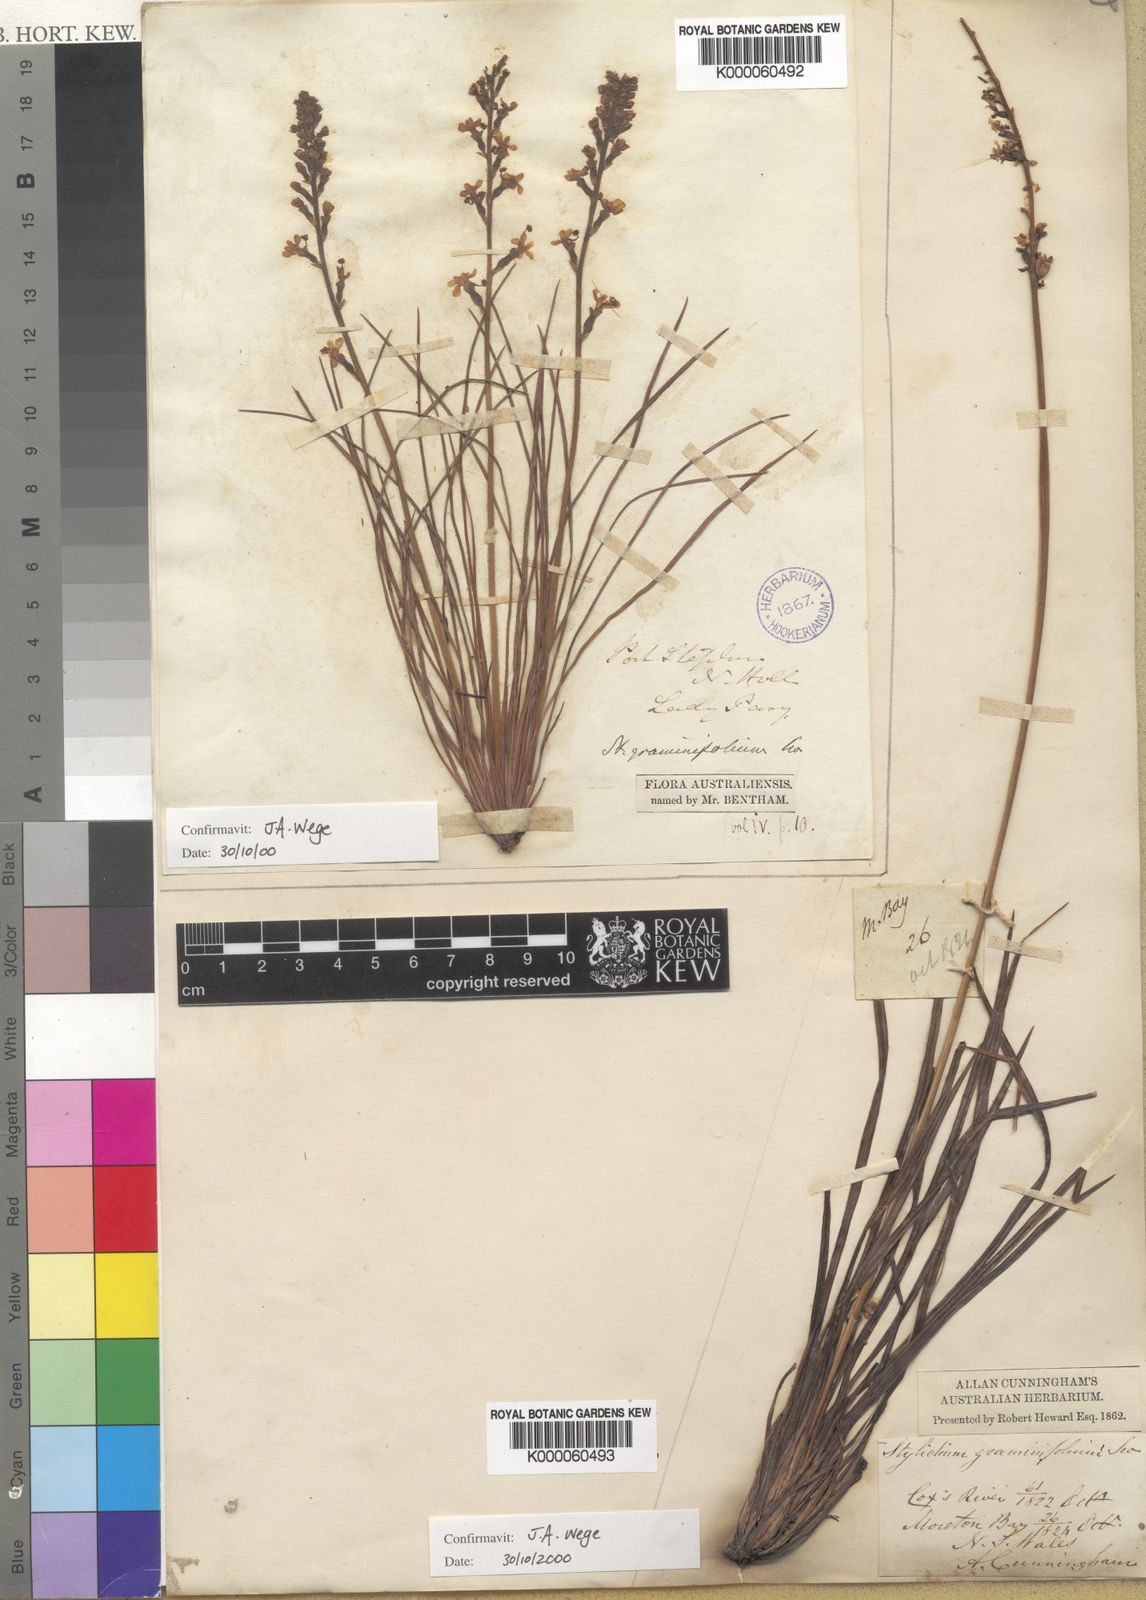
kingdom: Plantae
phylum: Tracheophyta
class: Magnoliopsida
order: Asterales
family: Stylidiaceae
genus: Stylidium
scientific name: Stylidium graminifolium
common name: Grass triggerplant
